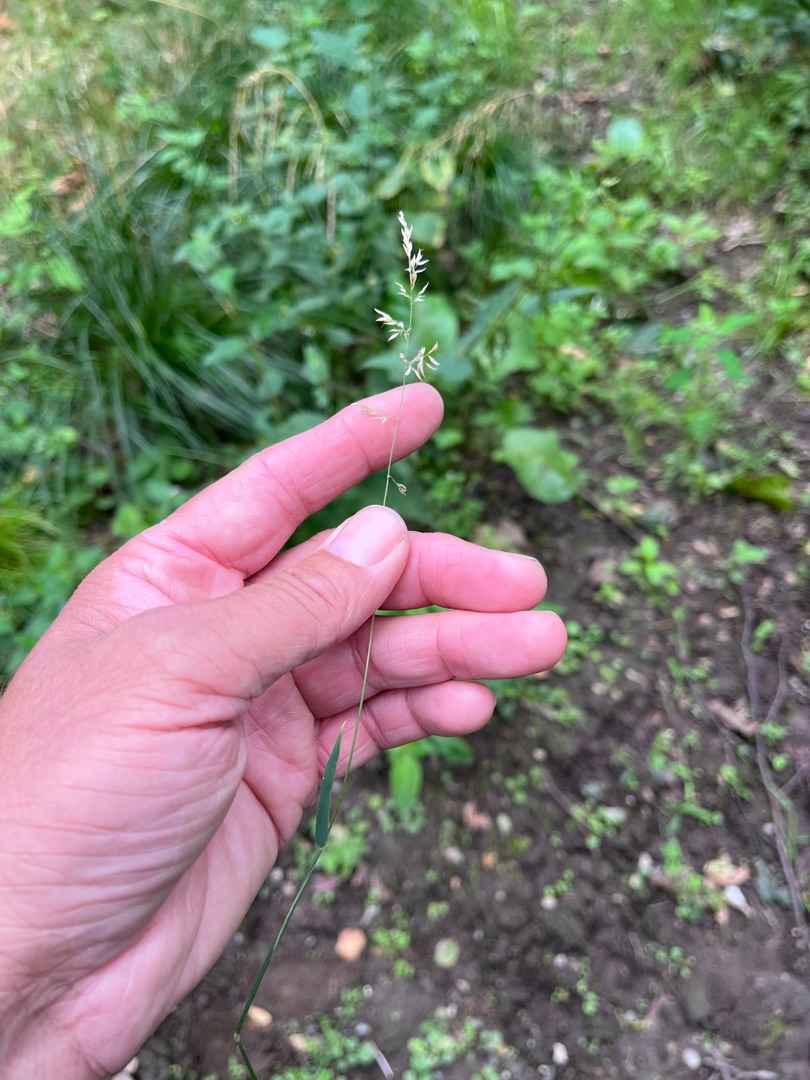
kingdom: Plantae
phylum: Tracheophyta
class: Liliopsida
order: Poales
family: Poaceae
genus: Holcus
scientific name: Holcus mollis
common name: Krybende hestegræs
